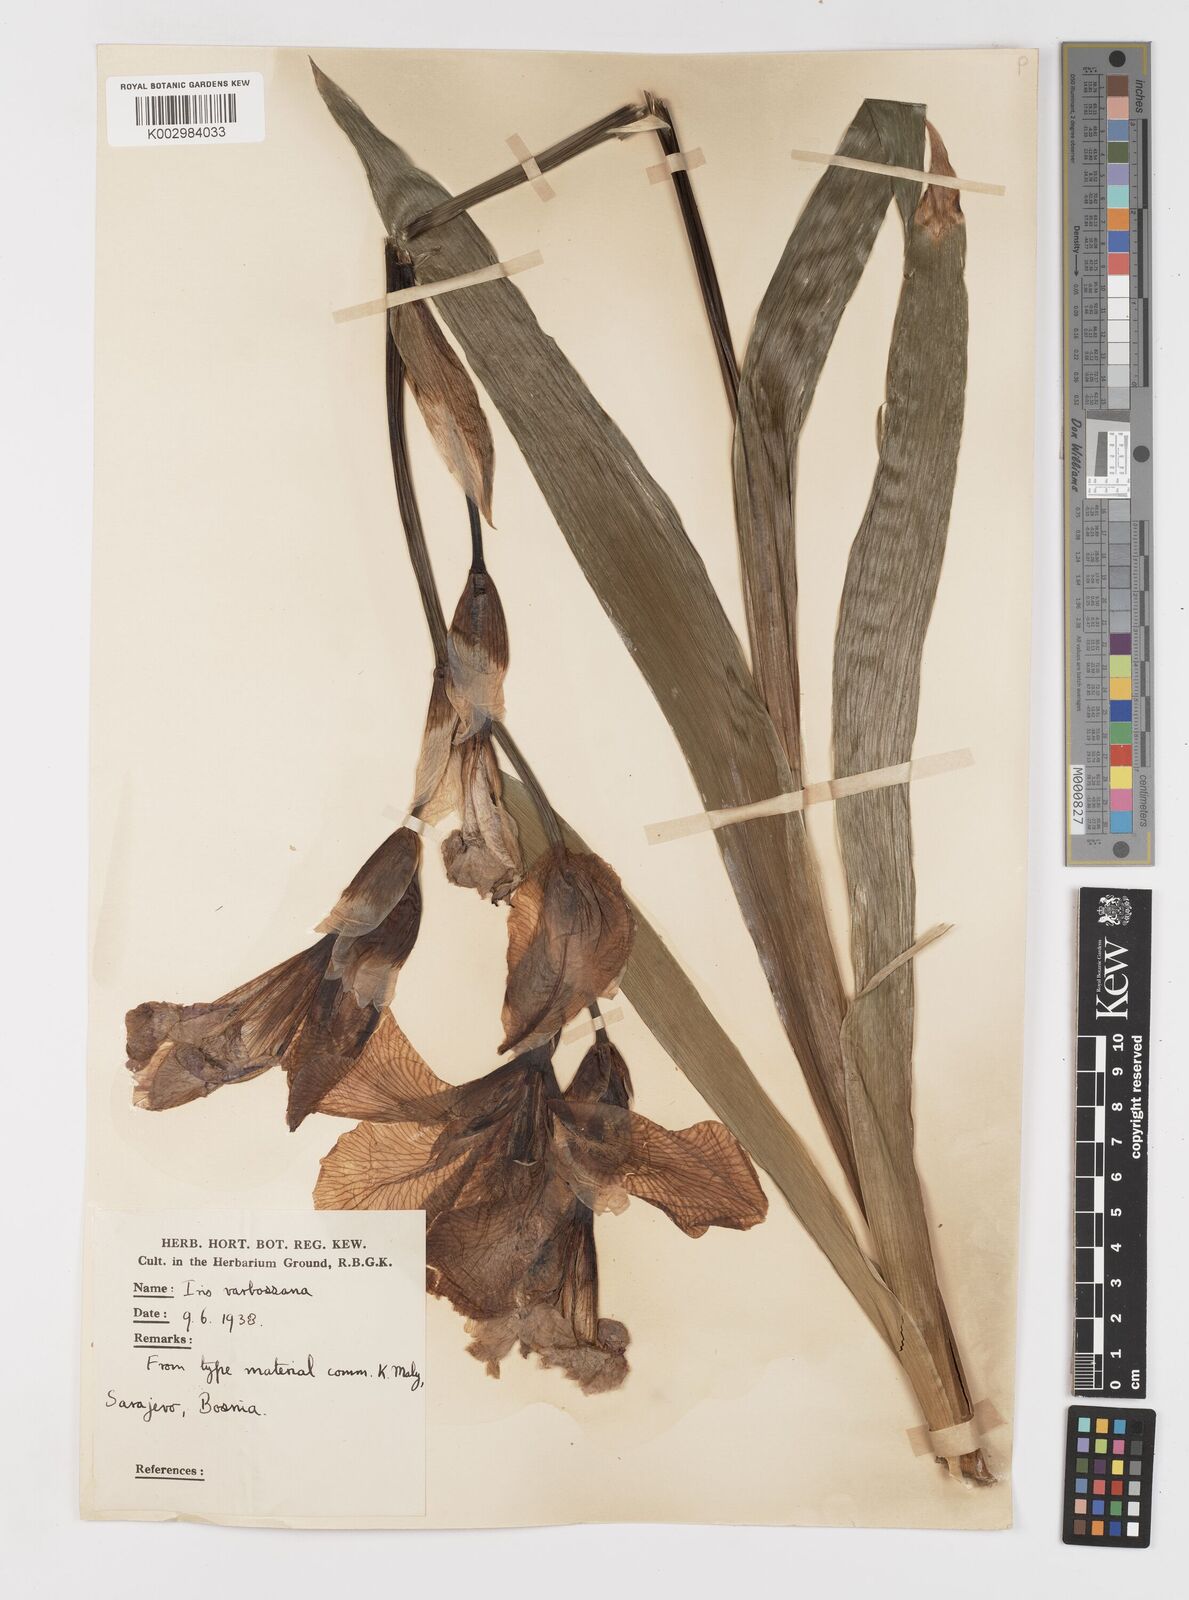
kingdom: Plantae
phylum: Tracheophyta
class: Liliopsida
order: Asparagales
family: Iridaceae
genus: Iris
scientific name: Iris germanica
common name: German iris
